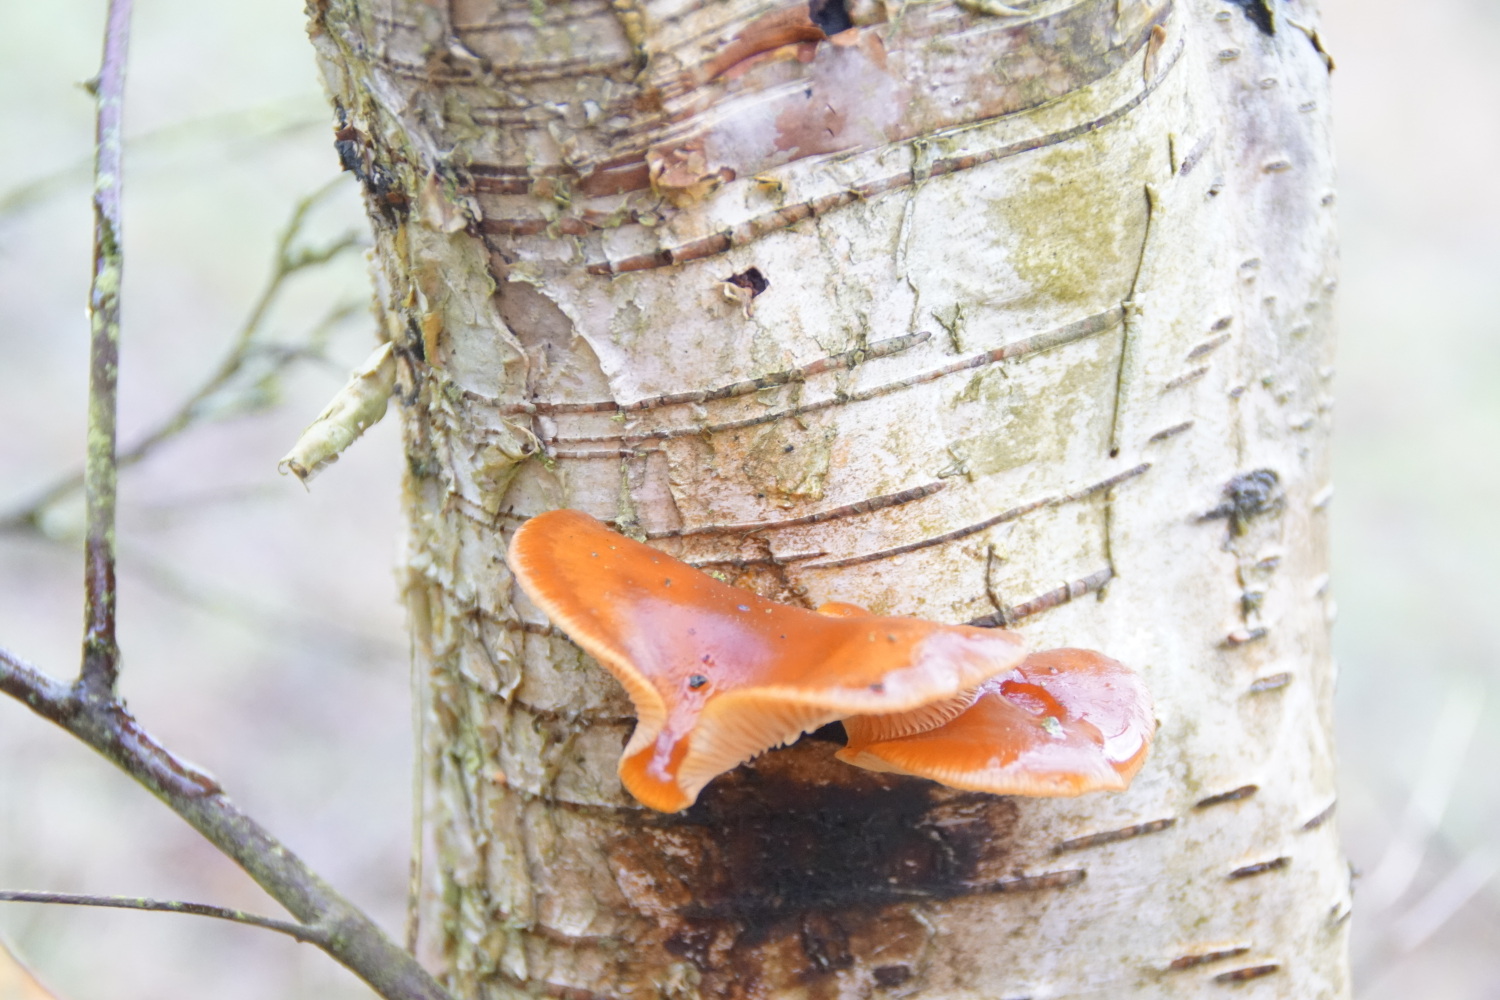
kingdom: Fungi
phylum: Basidiomycota
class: Agaricomycetes
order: Agaricales
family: Physalacriaceae
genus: Flammulina
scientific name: Flammulina velutipes
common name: gul fløjlsfod
